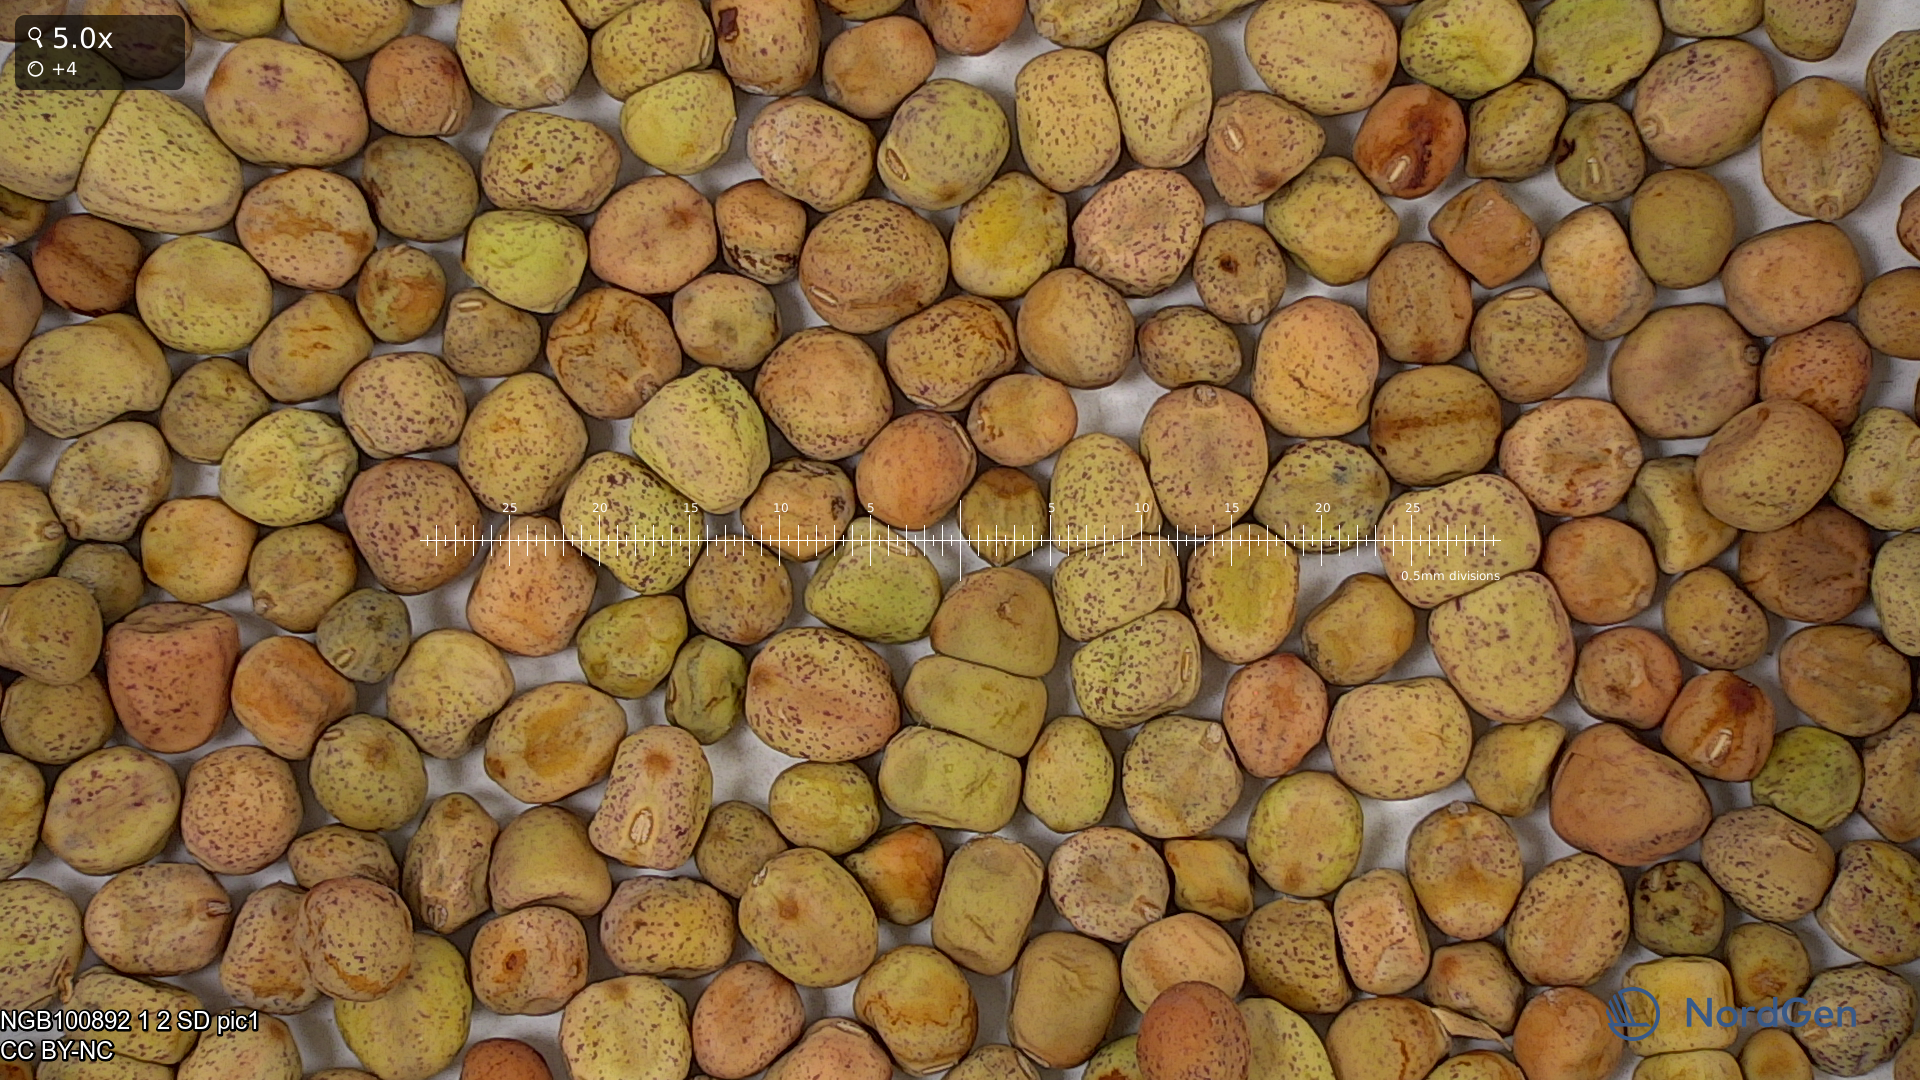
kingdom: Plantae
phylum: Tracheophyta
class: Magnoliopsida
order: Fabales
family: Fabaceae
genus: Lathyrus
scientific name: Lathyrus oleraceus
